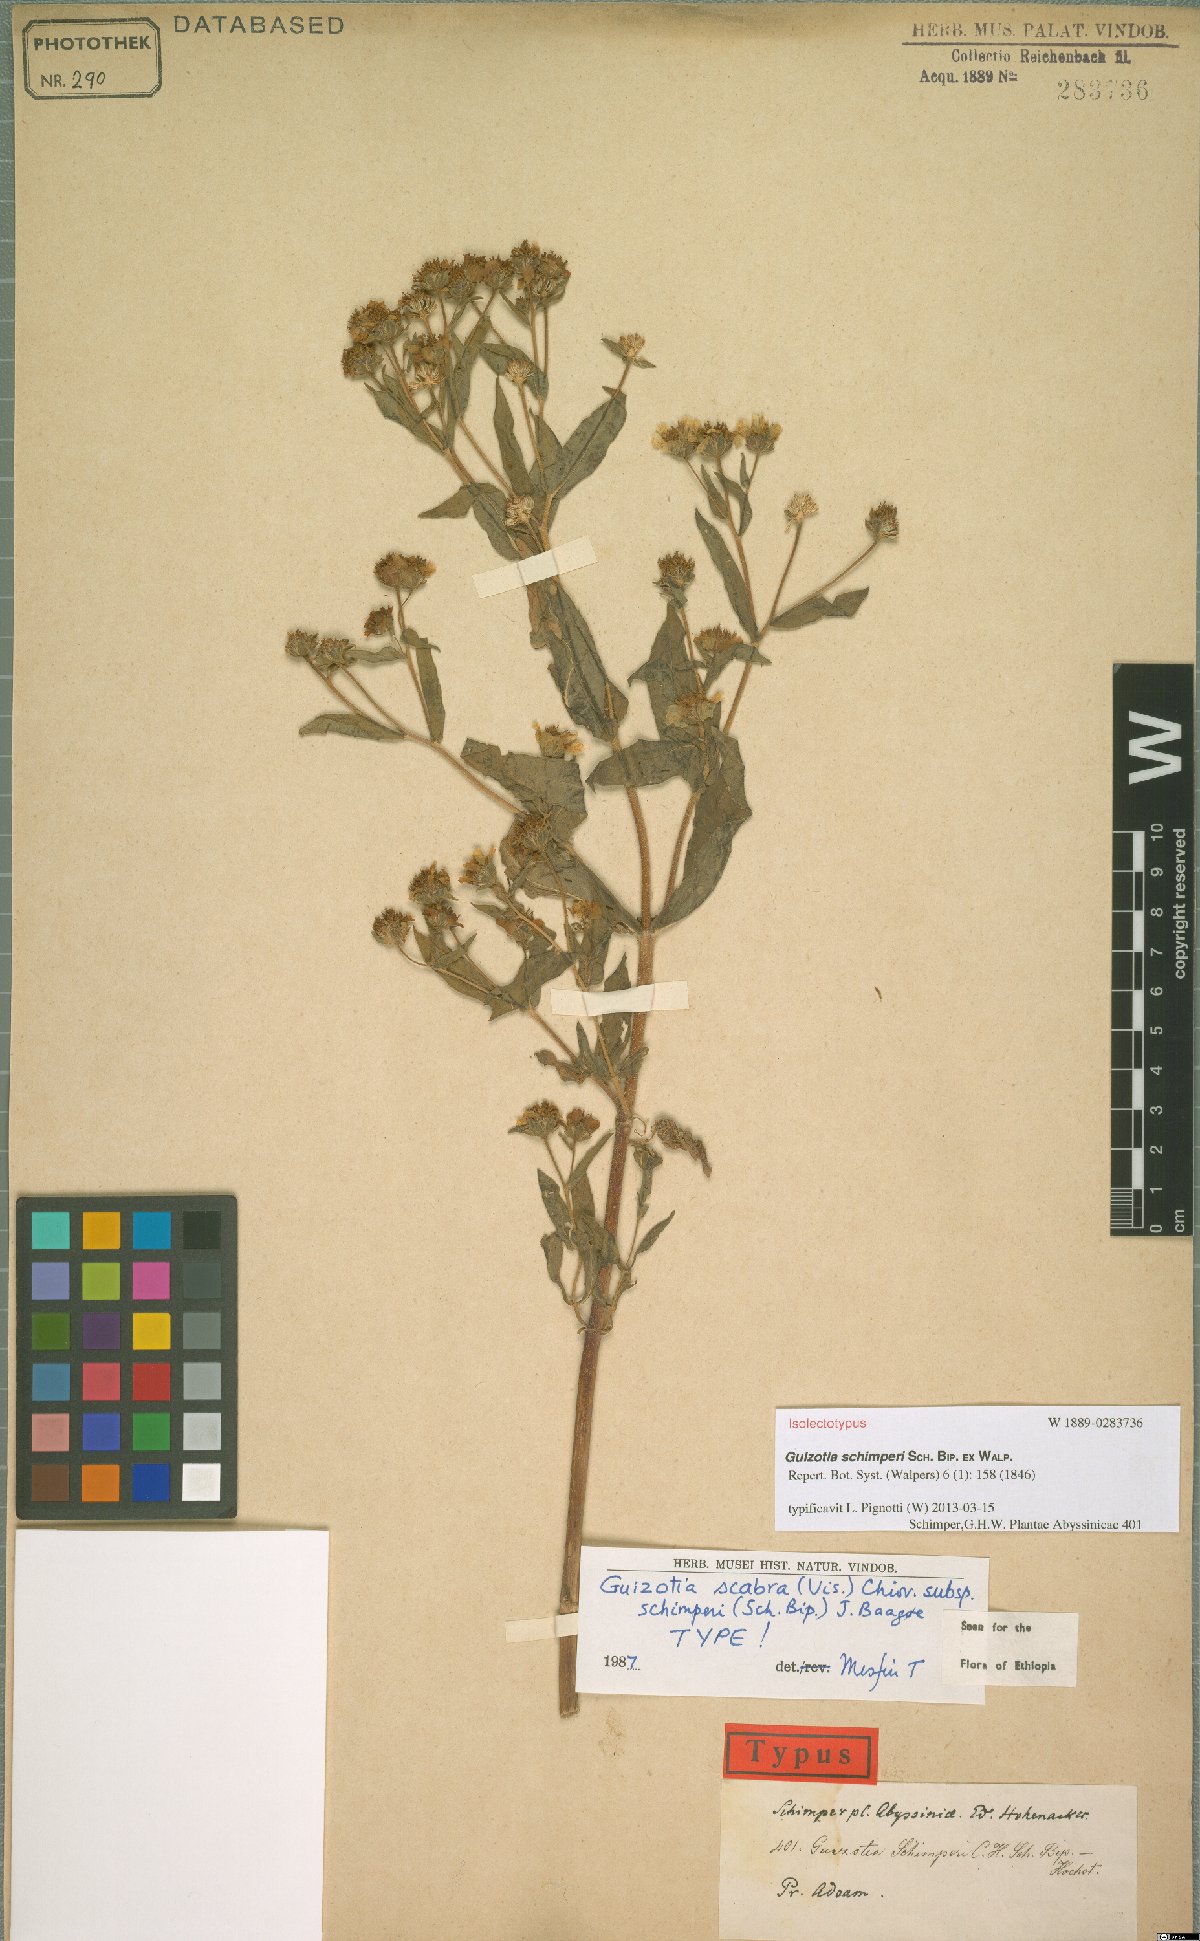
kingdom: Plantae
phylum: Tracheophyta
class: Magnoliopsida
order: Asterales
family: Asteraceae
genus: Guizotia
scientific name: Guizotia schimperi
